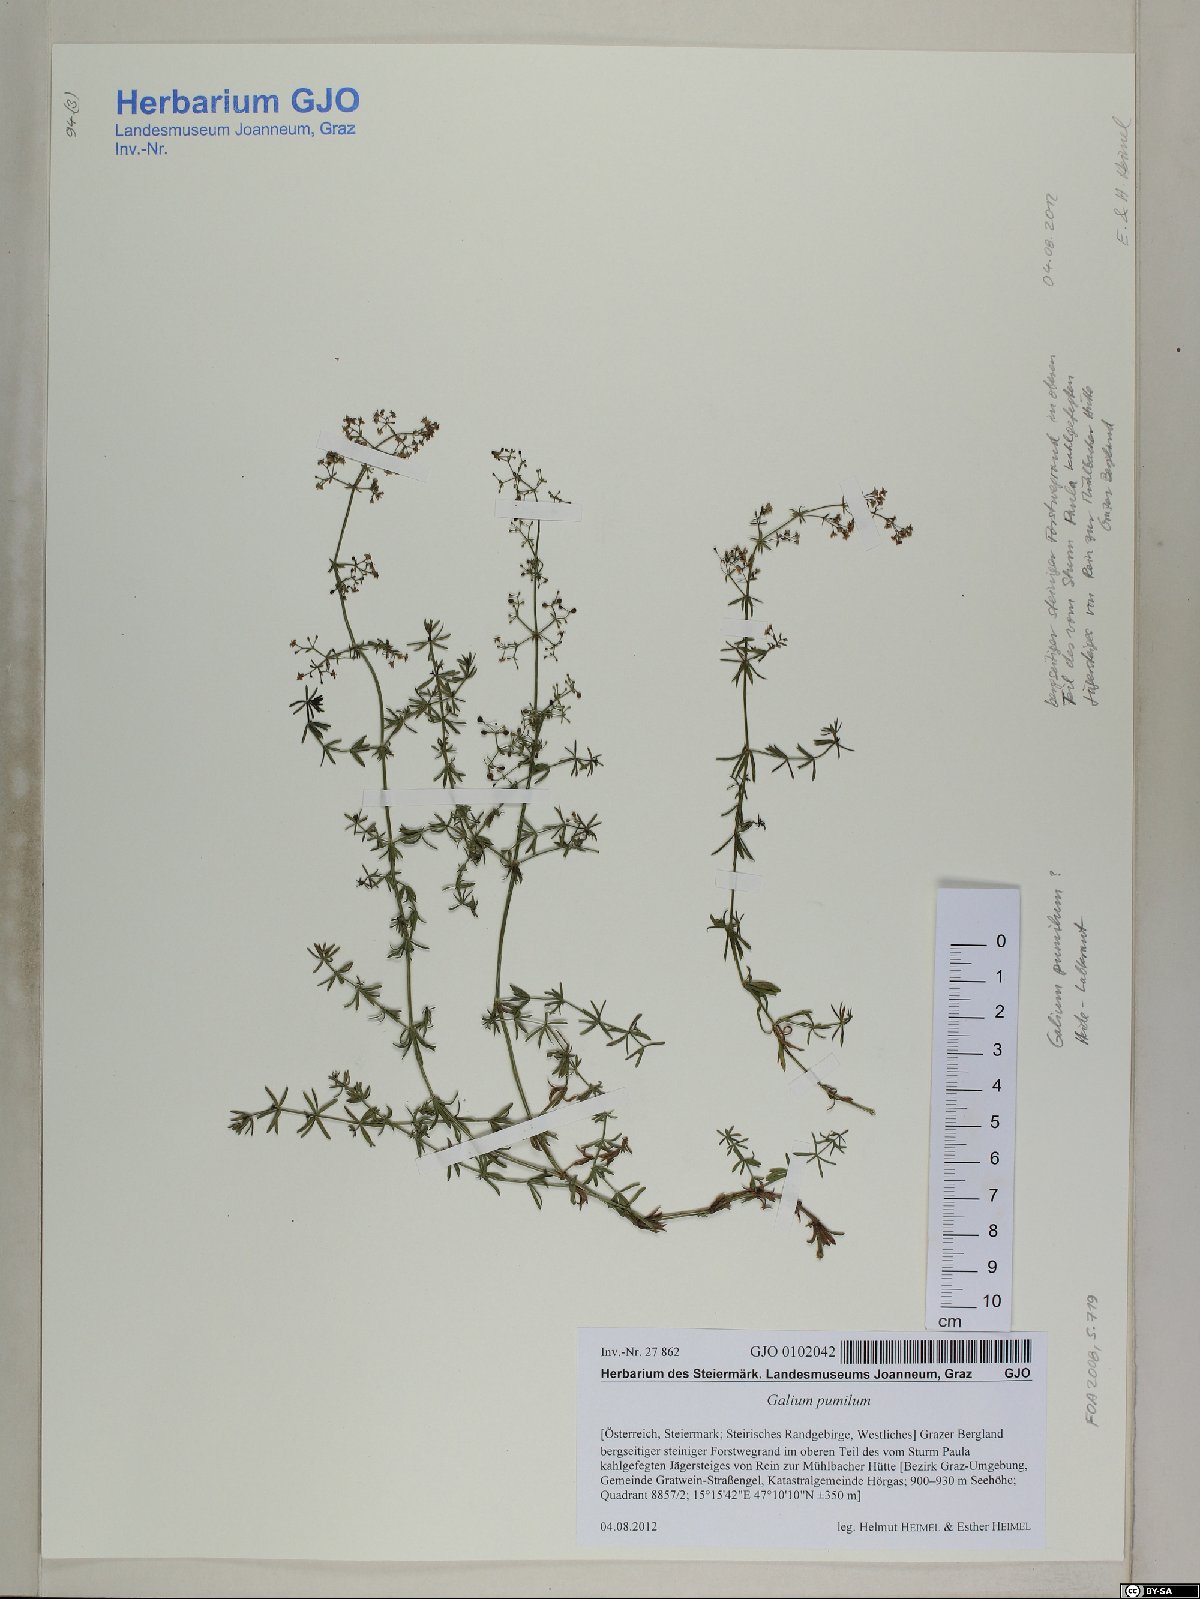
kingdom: Plantae
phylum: Tracheophyta
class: Magnoliopsida
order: Gentianales
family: Rubiaceae
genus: Galium
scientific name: Galium pumilum
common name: Slender bedstraw
